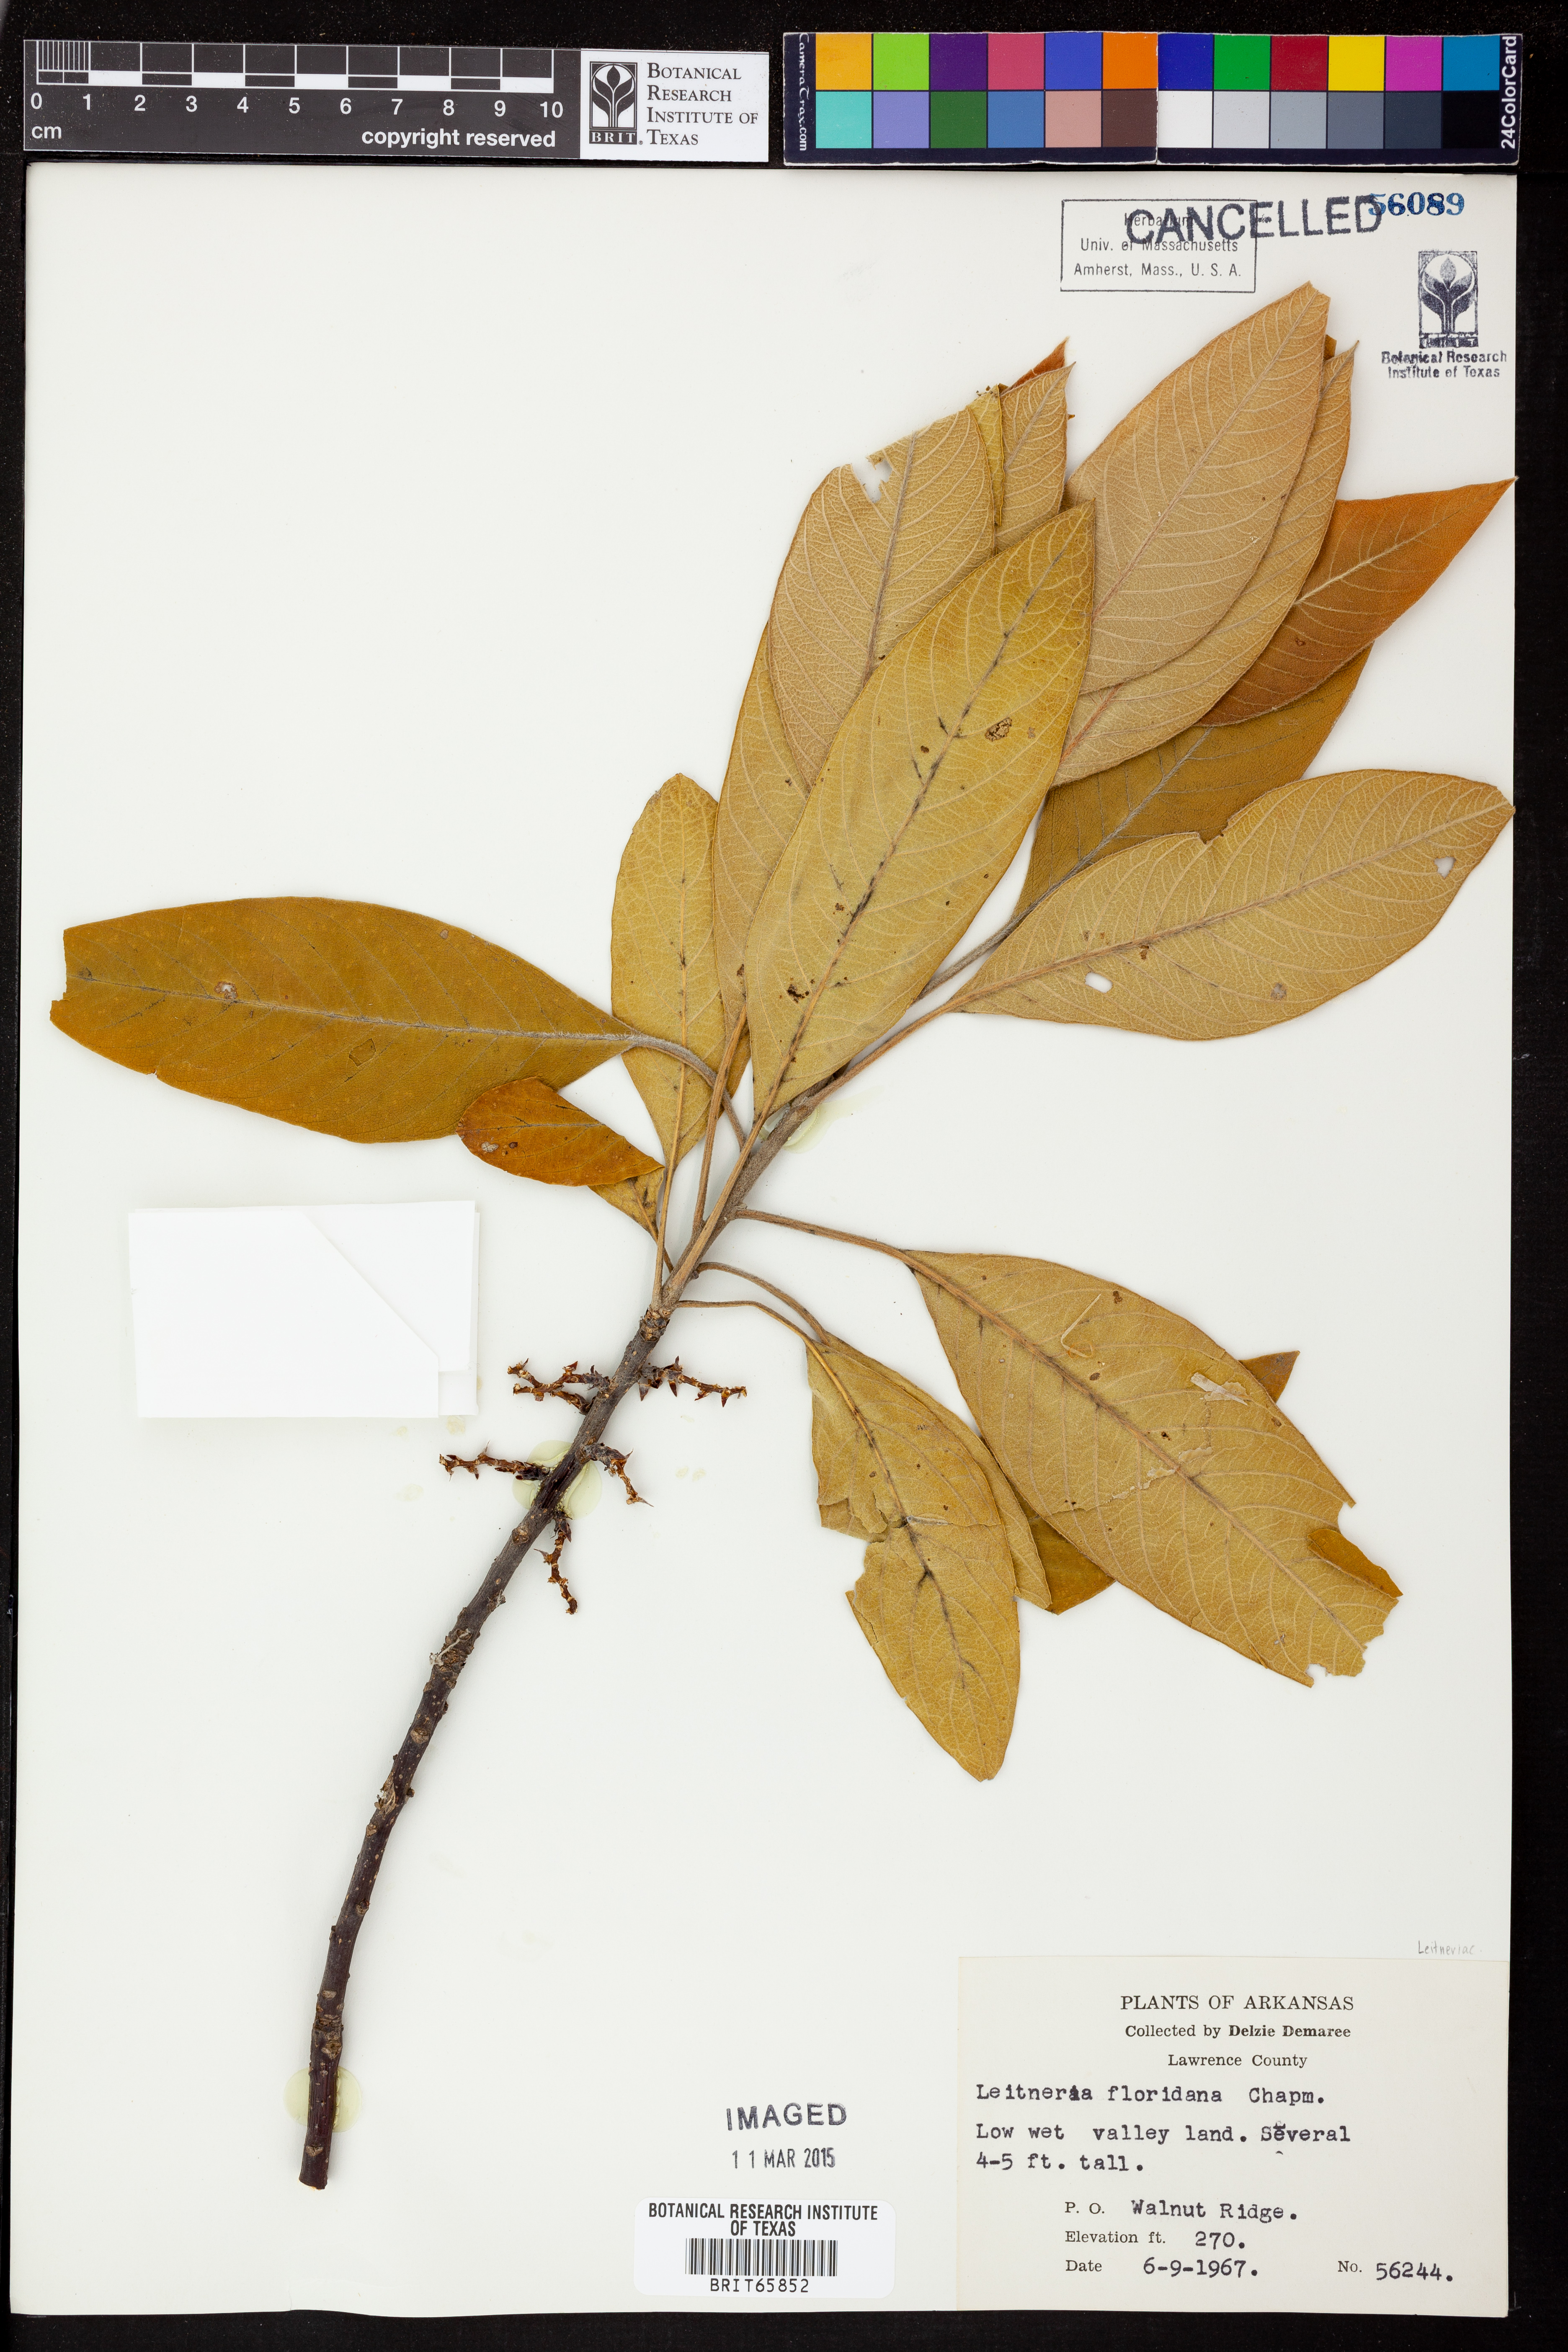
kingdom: Plantae
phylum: Tracheophyta
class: Magnoliopsida
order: Sapindales
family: Simaroubaceae
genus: Leitneria
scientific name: Leitneria floridana
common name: Corkwood
